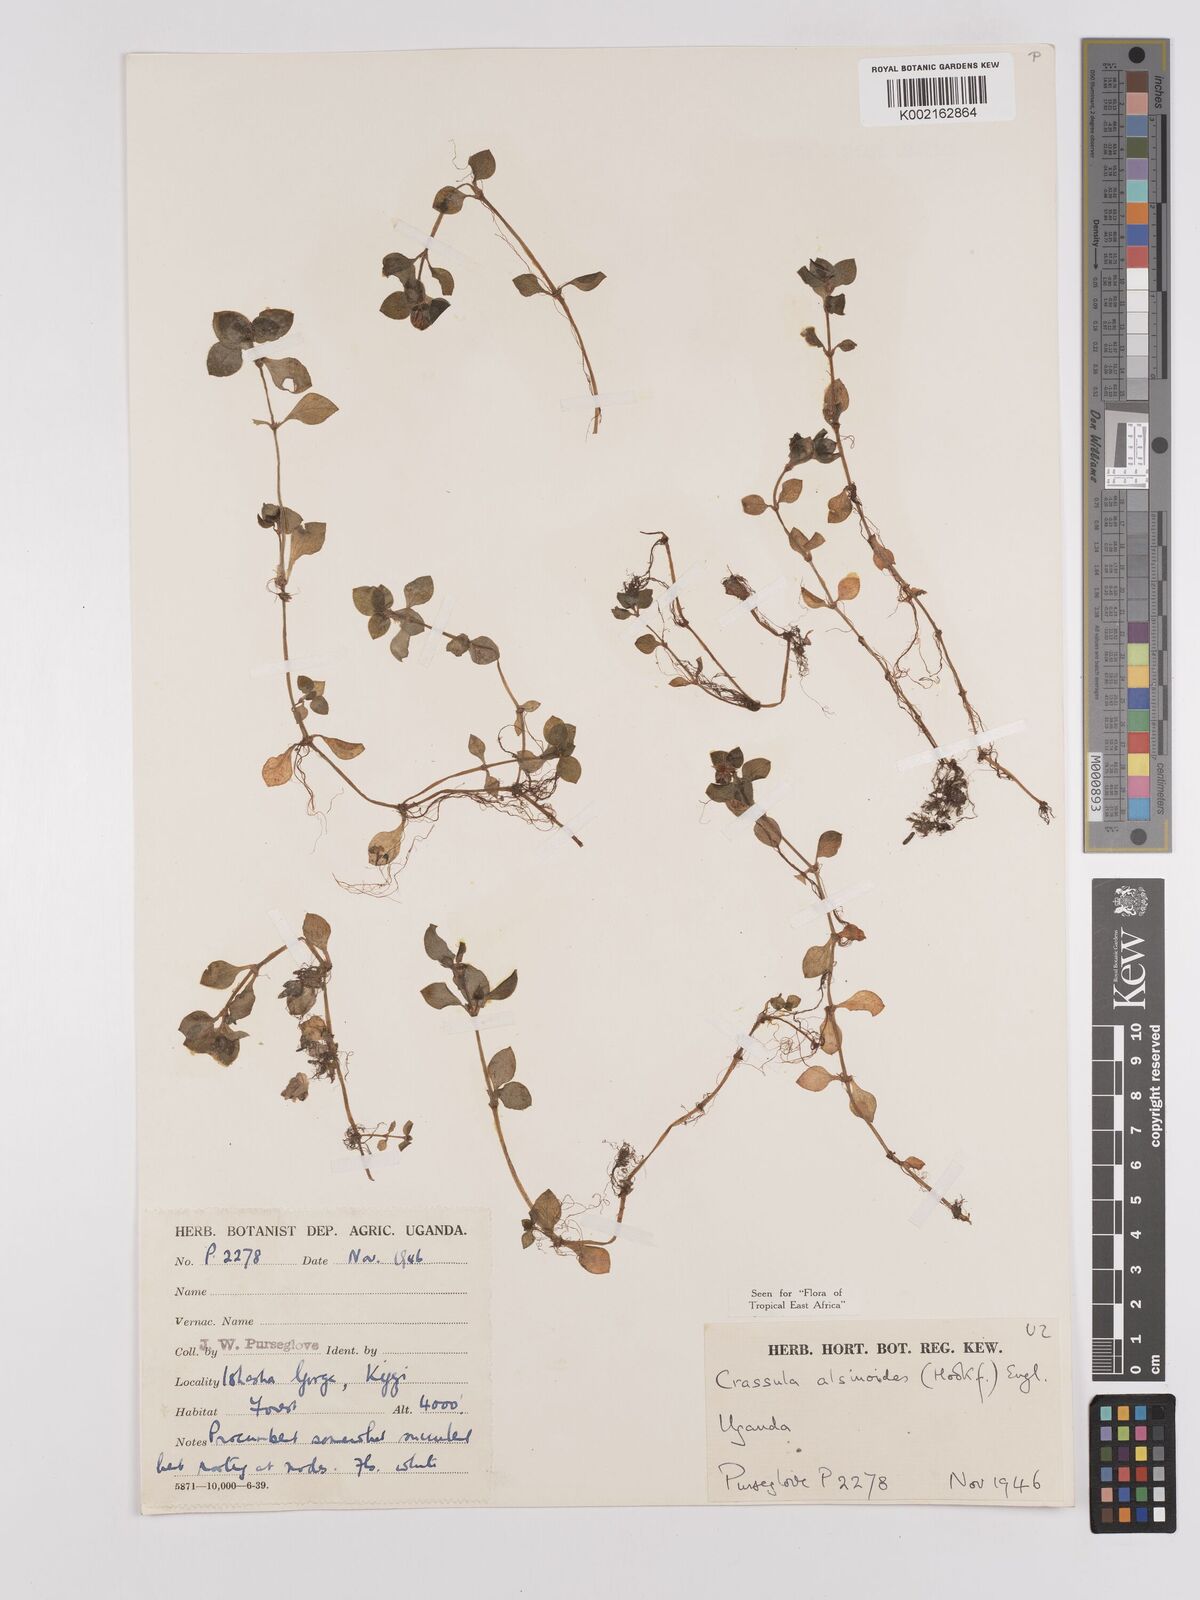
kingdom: Plantae
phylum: Tracheophyta
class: Magnoliopsida
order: Saxifragales
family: Crassulaceae
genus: Crassula
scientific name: Crassula alsinoides
